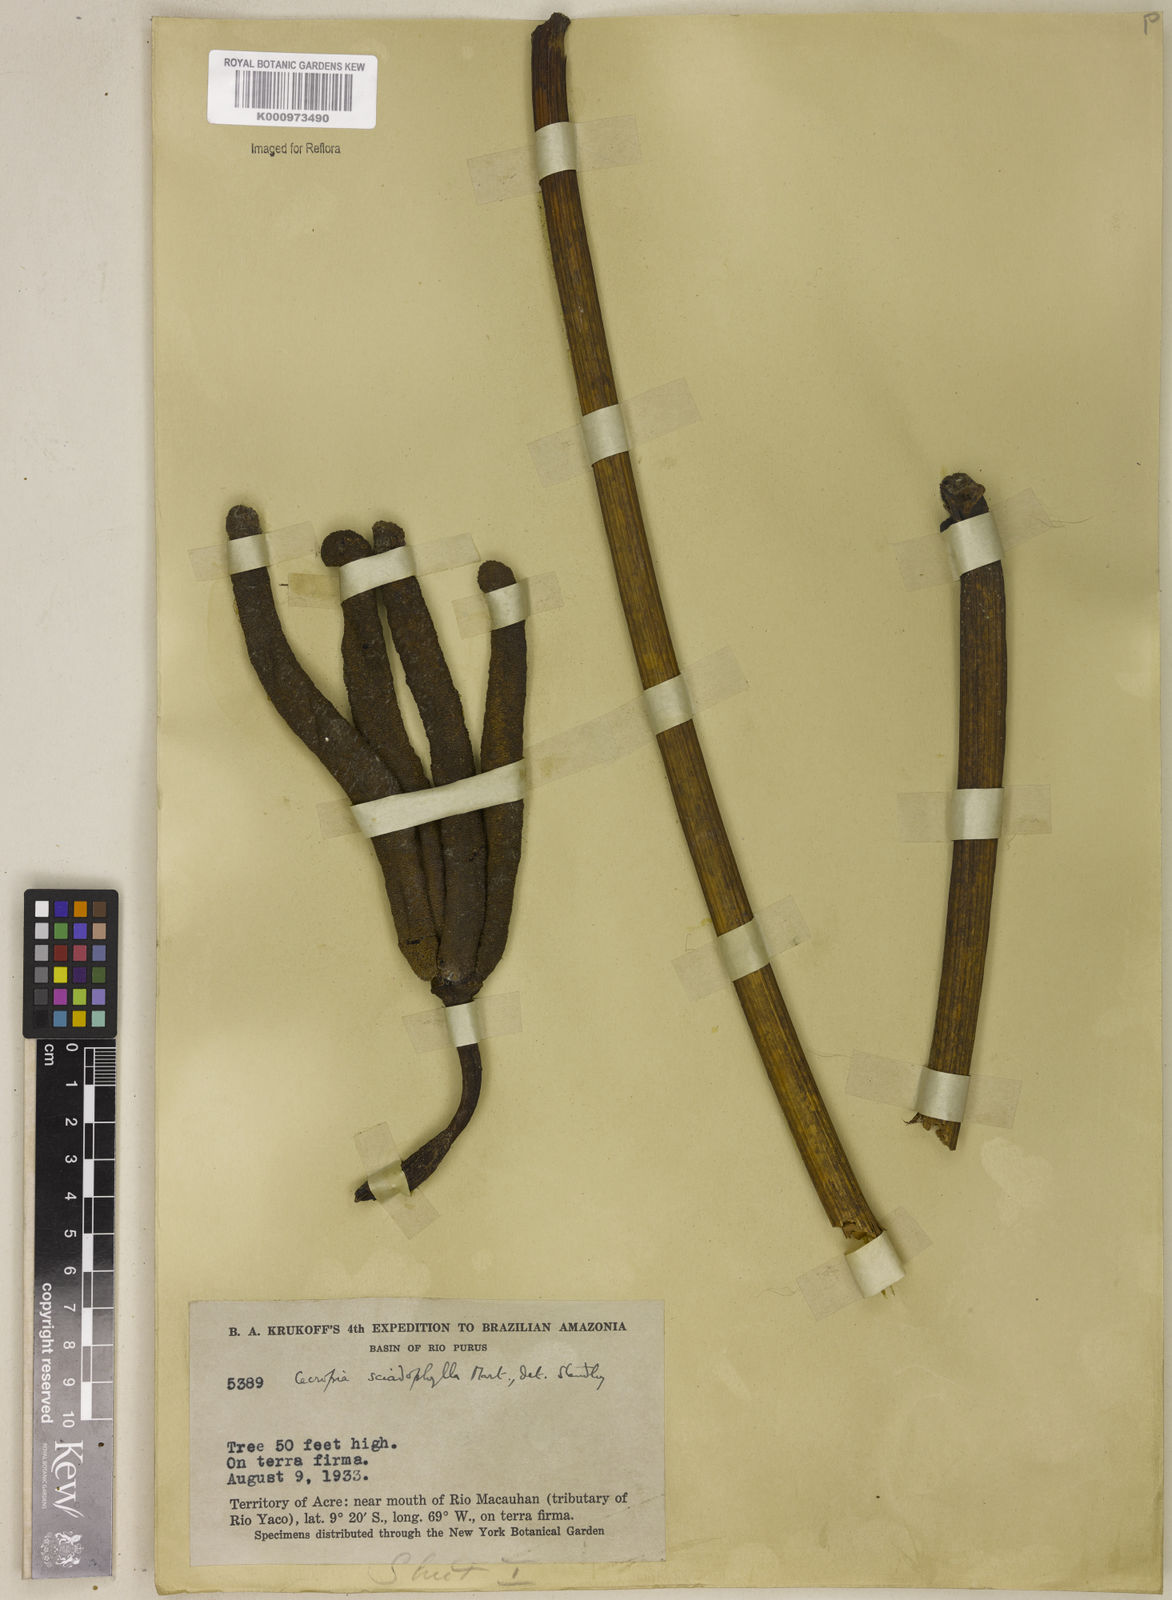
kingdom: Plantae
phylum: Tracheophyta
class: Magnoliopsida
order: Rosales
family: Urticaceae
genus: Cecropia
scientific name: Cecropia sciadophylla
